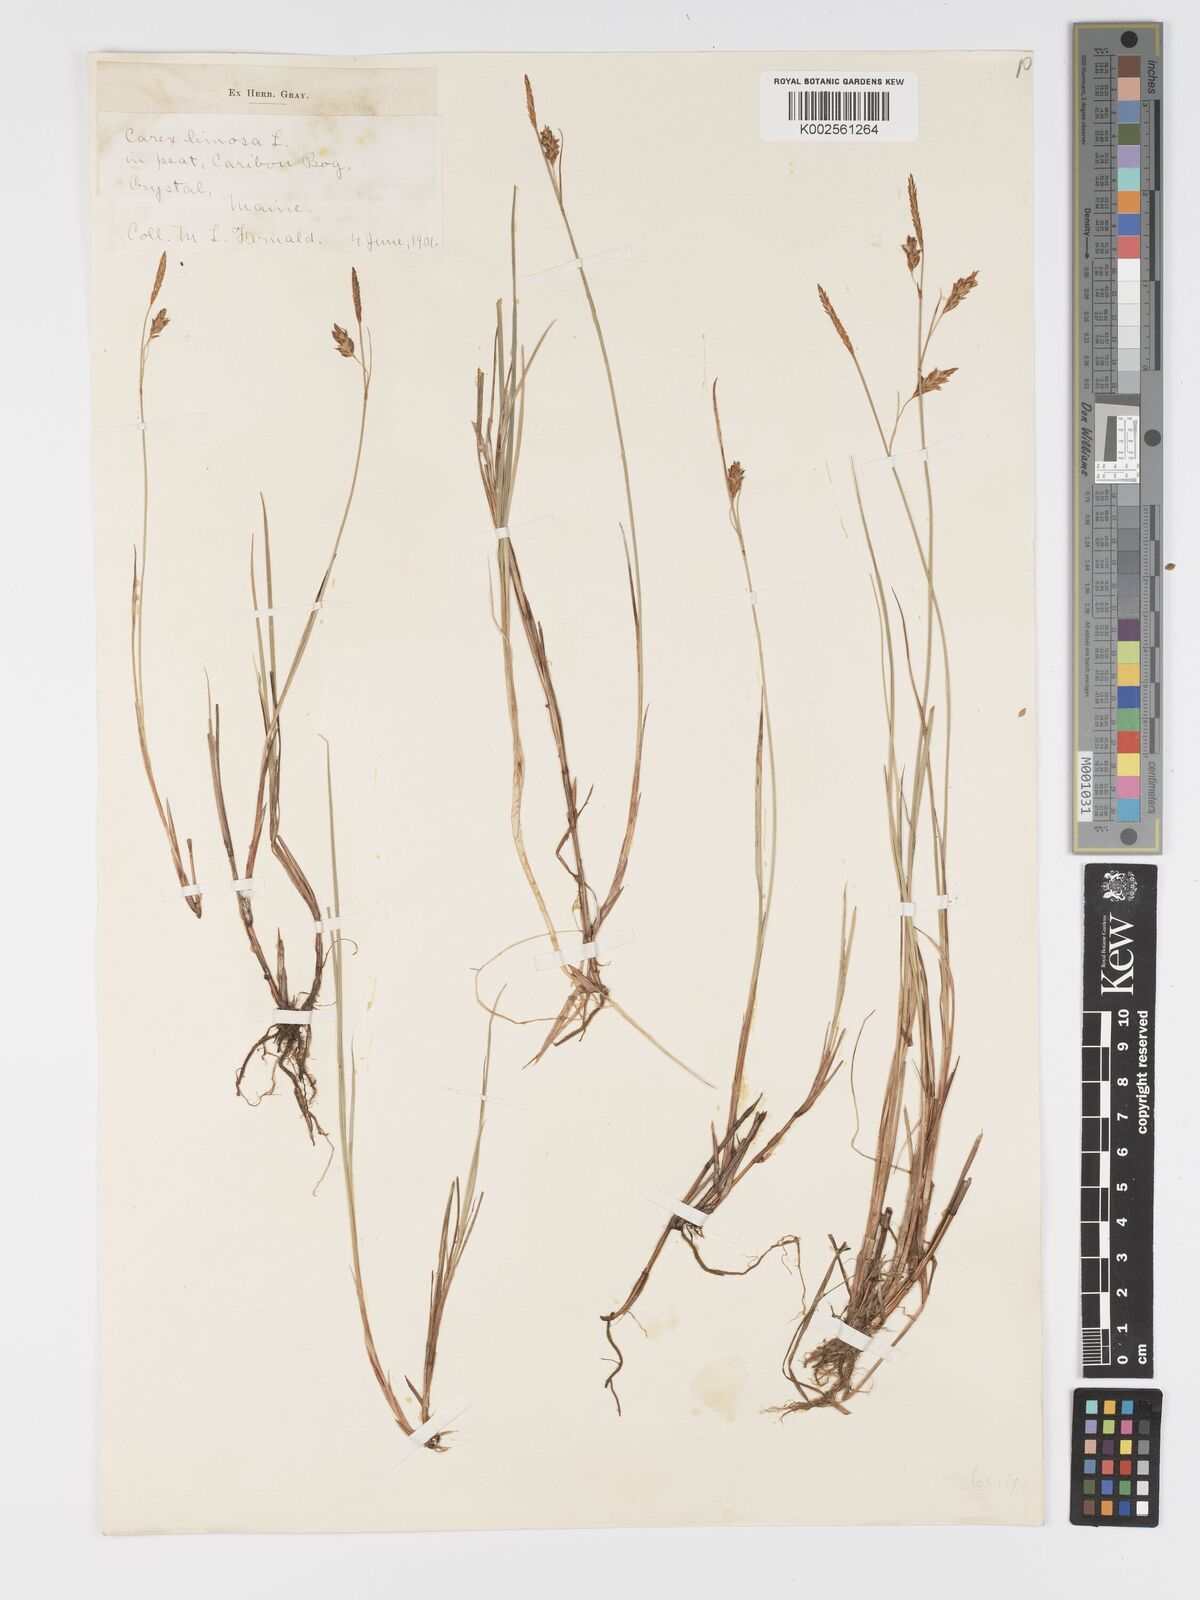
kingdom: Plantae
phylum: Tracheophyta
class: Liliopsida
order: Poales
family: Cyperaceae
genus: Carex
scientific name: Carex limosa
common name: Bog sedge
